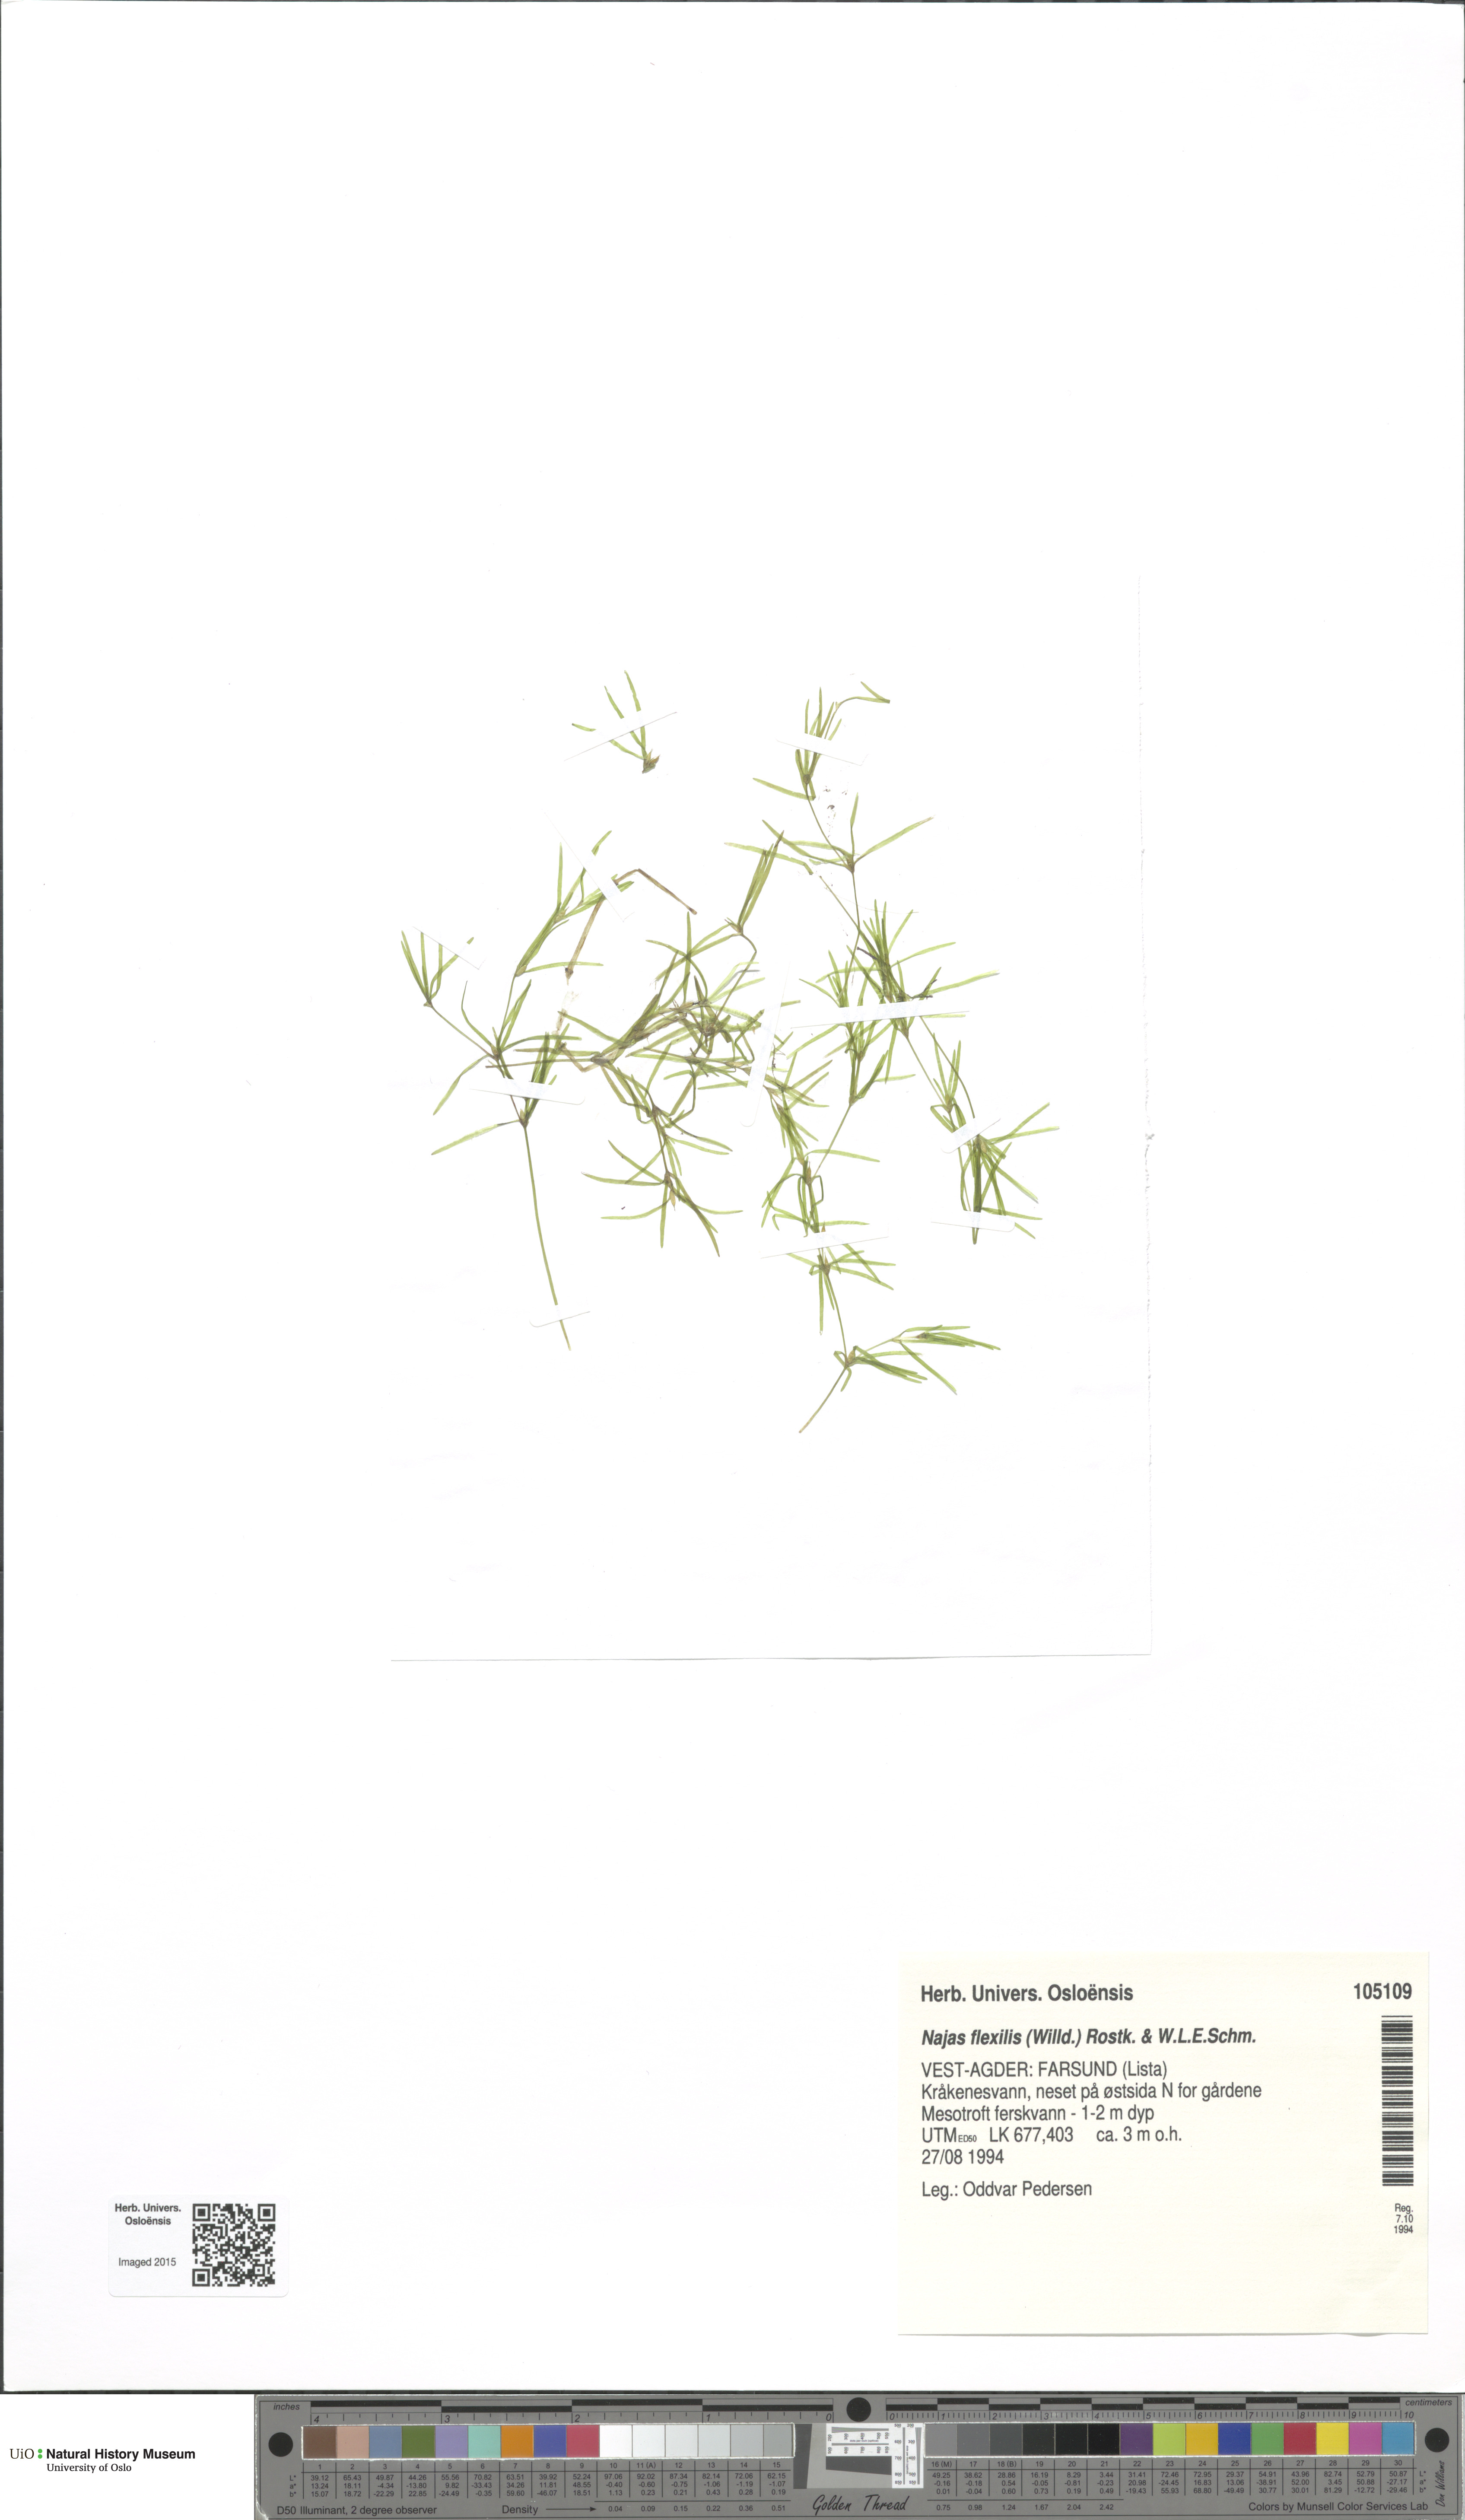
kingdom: Plantae
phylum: Tracheophyta
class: Liliopsida
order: Alismatales
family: Hydrocharitaceae
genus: Najas
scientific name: Najas flexilis
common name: Slender naiad
